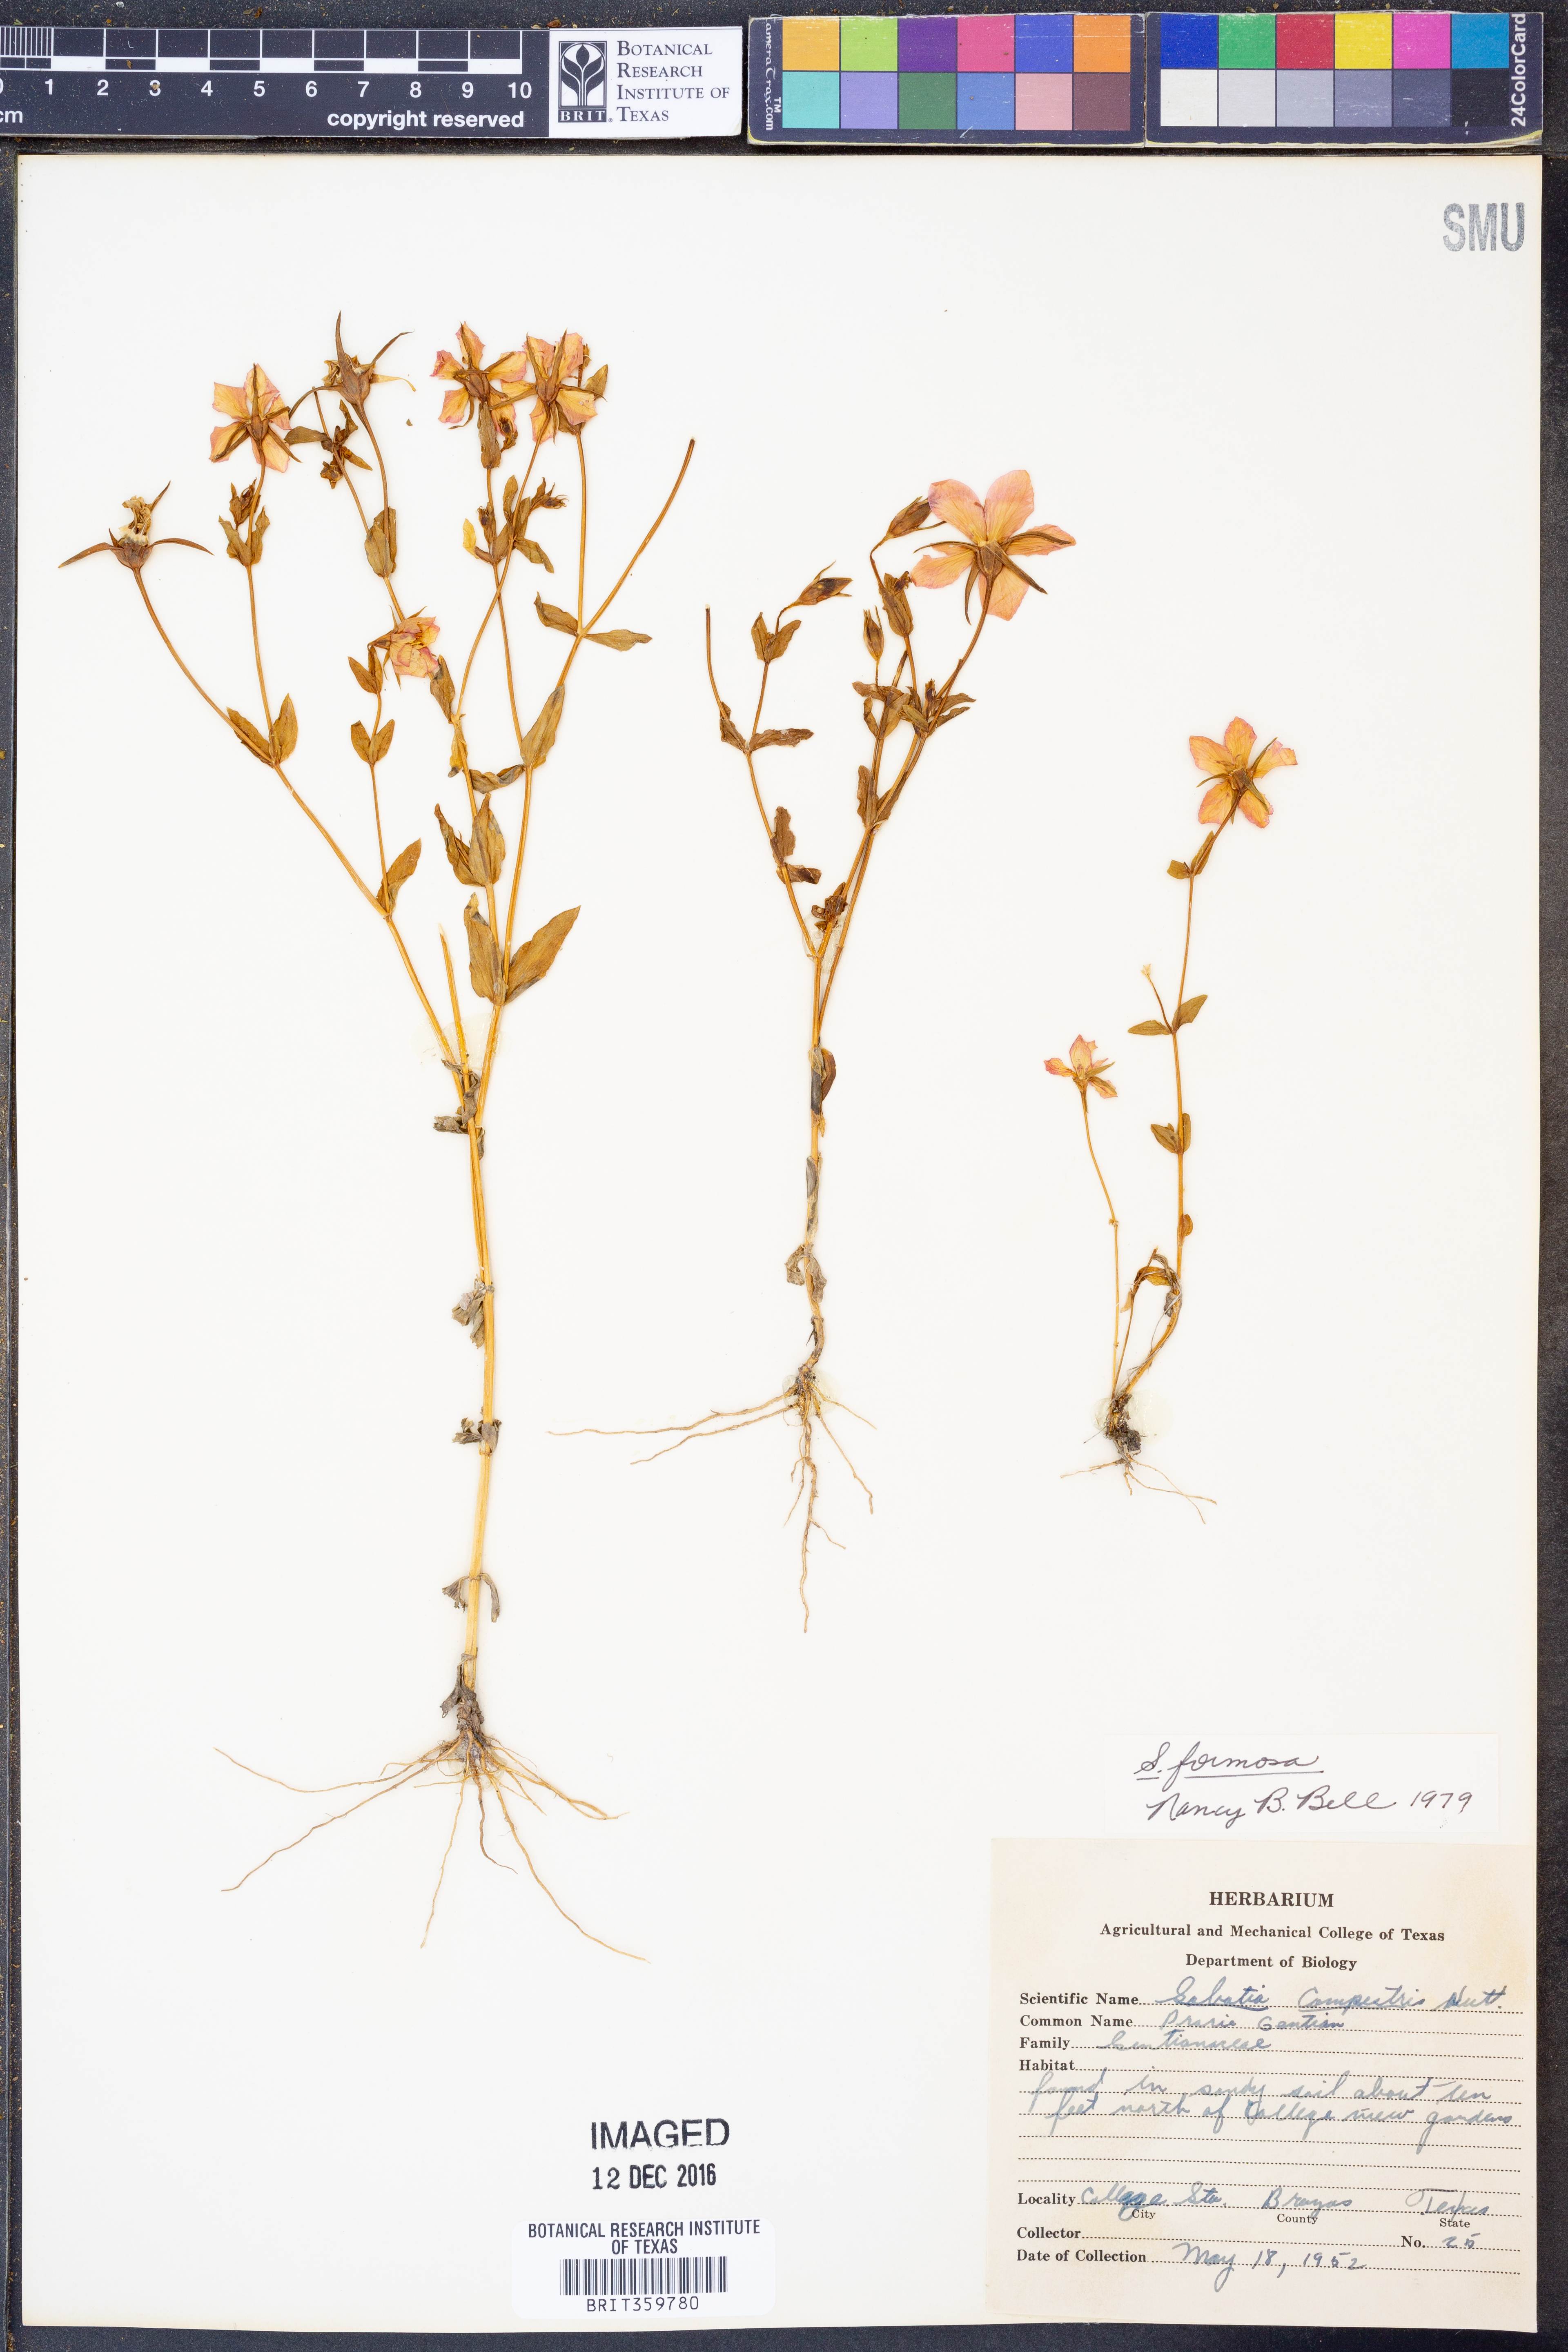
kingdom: Plantae
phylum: Tracheophyta
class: Magnoliopsida
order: Gentianales
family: Gentianaceae
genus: Sabatia
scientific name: Sabatia formosa
